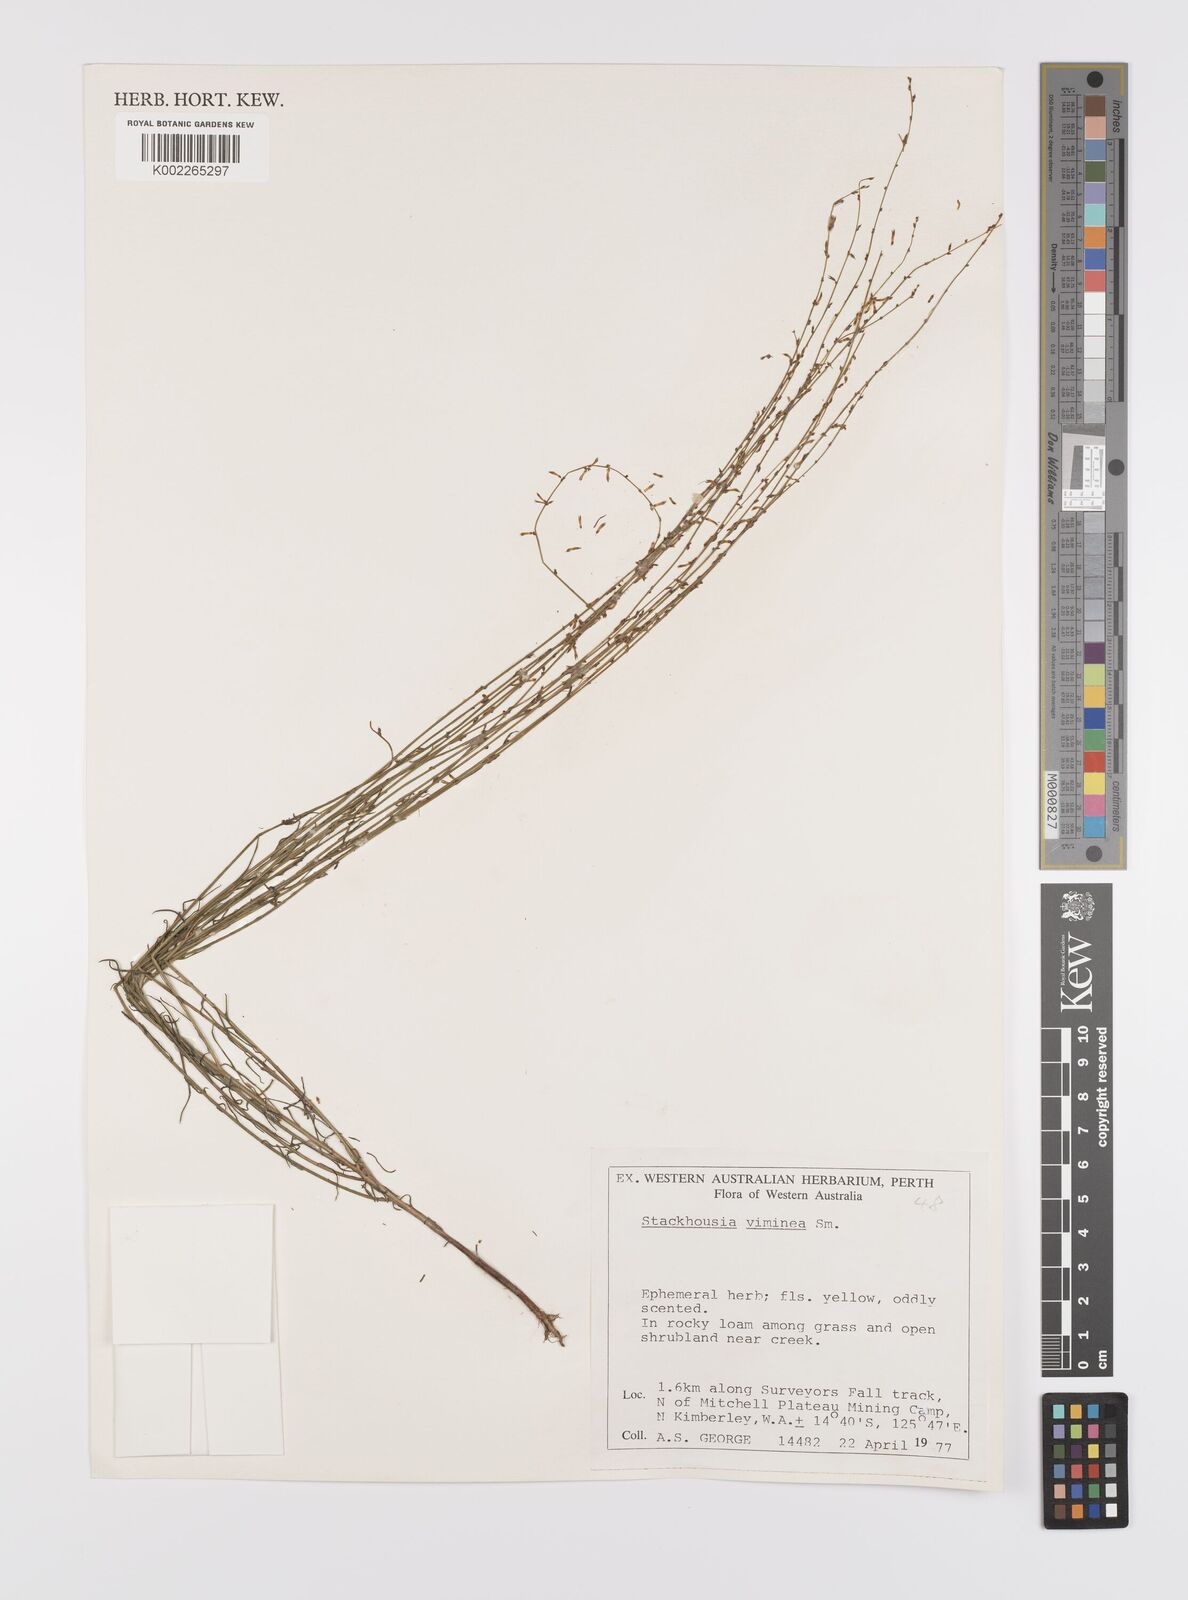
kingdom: Plantae
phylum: Tracheophyta
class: Magnoliopsida
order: Celastrales
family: Celastraceae
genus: Stackhousia
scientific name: Stackhousia viminea
